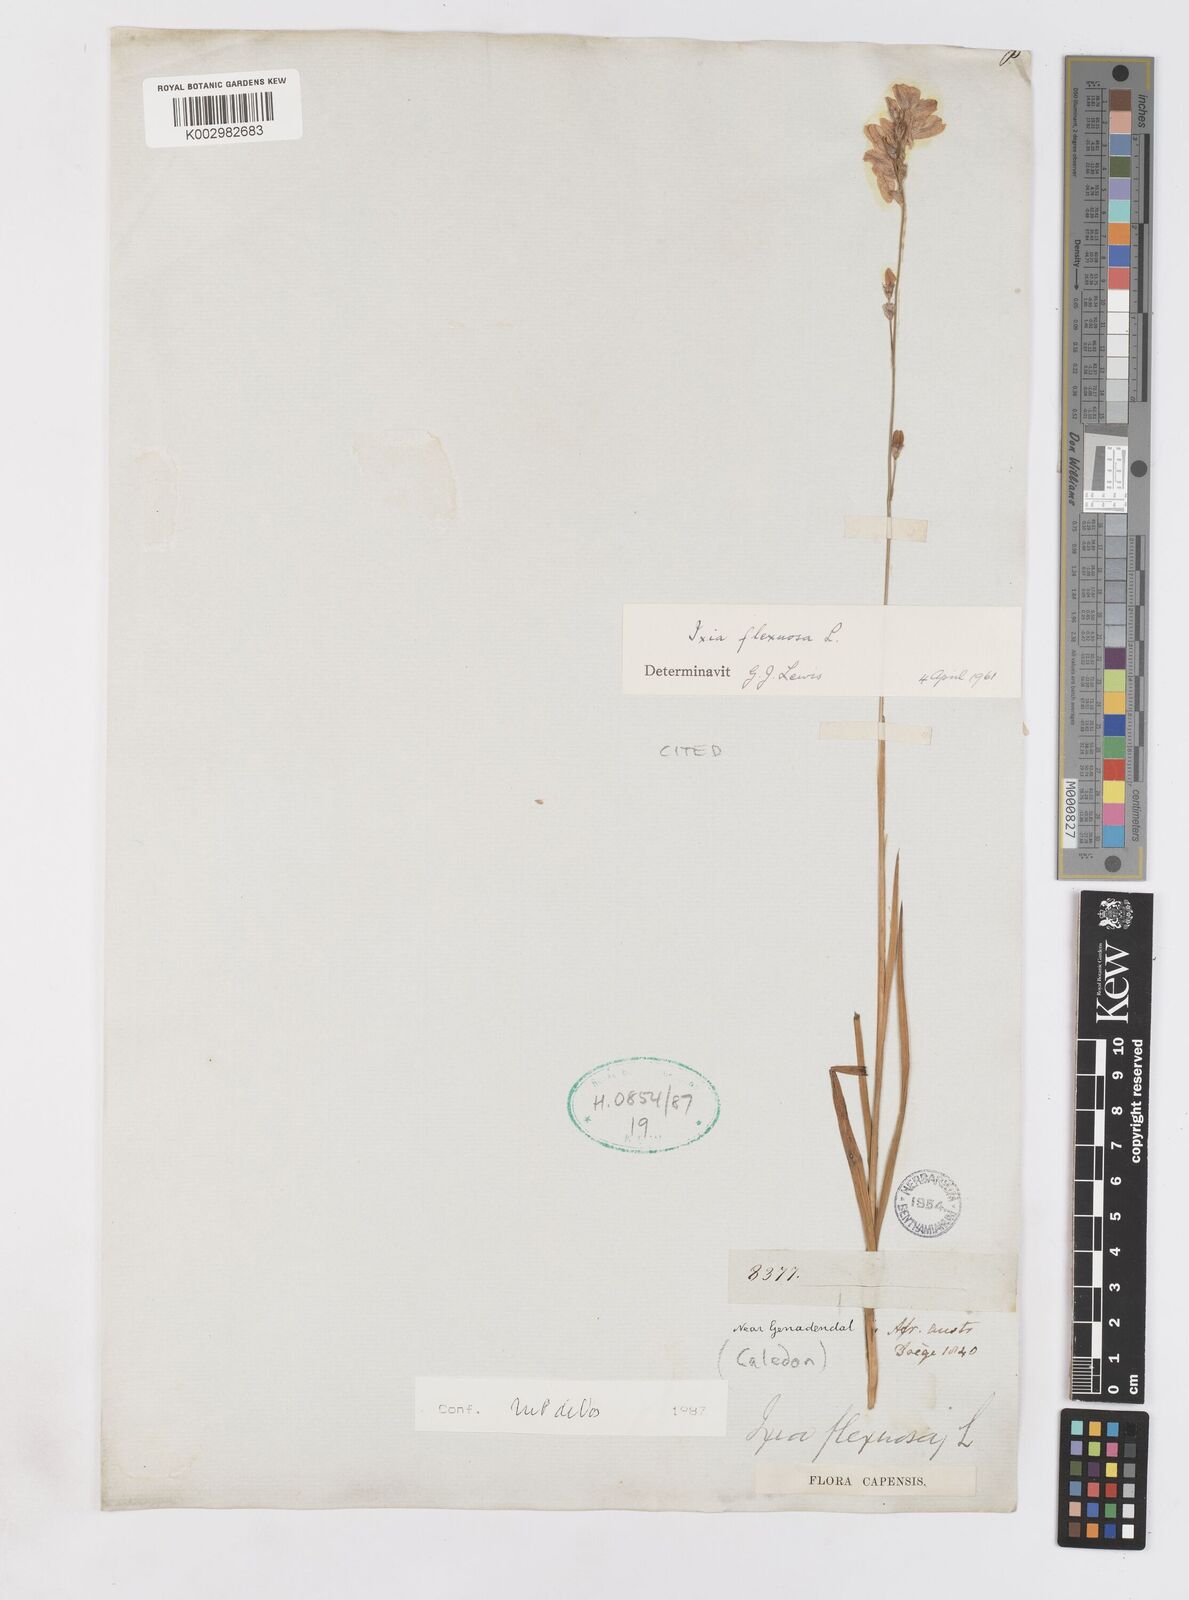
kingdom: Plantae
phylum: Tracheophyta
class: Liliopsida
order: Asparagales
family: Iridaceae
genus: Ixia
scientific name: Ixia flexuosa
